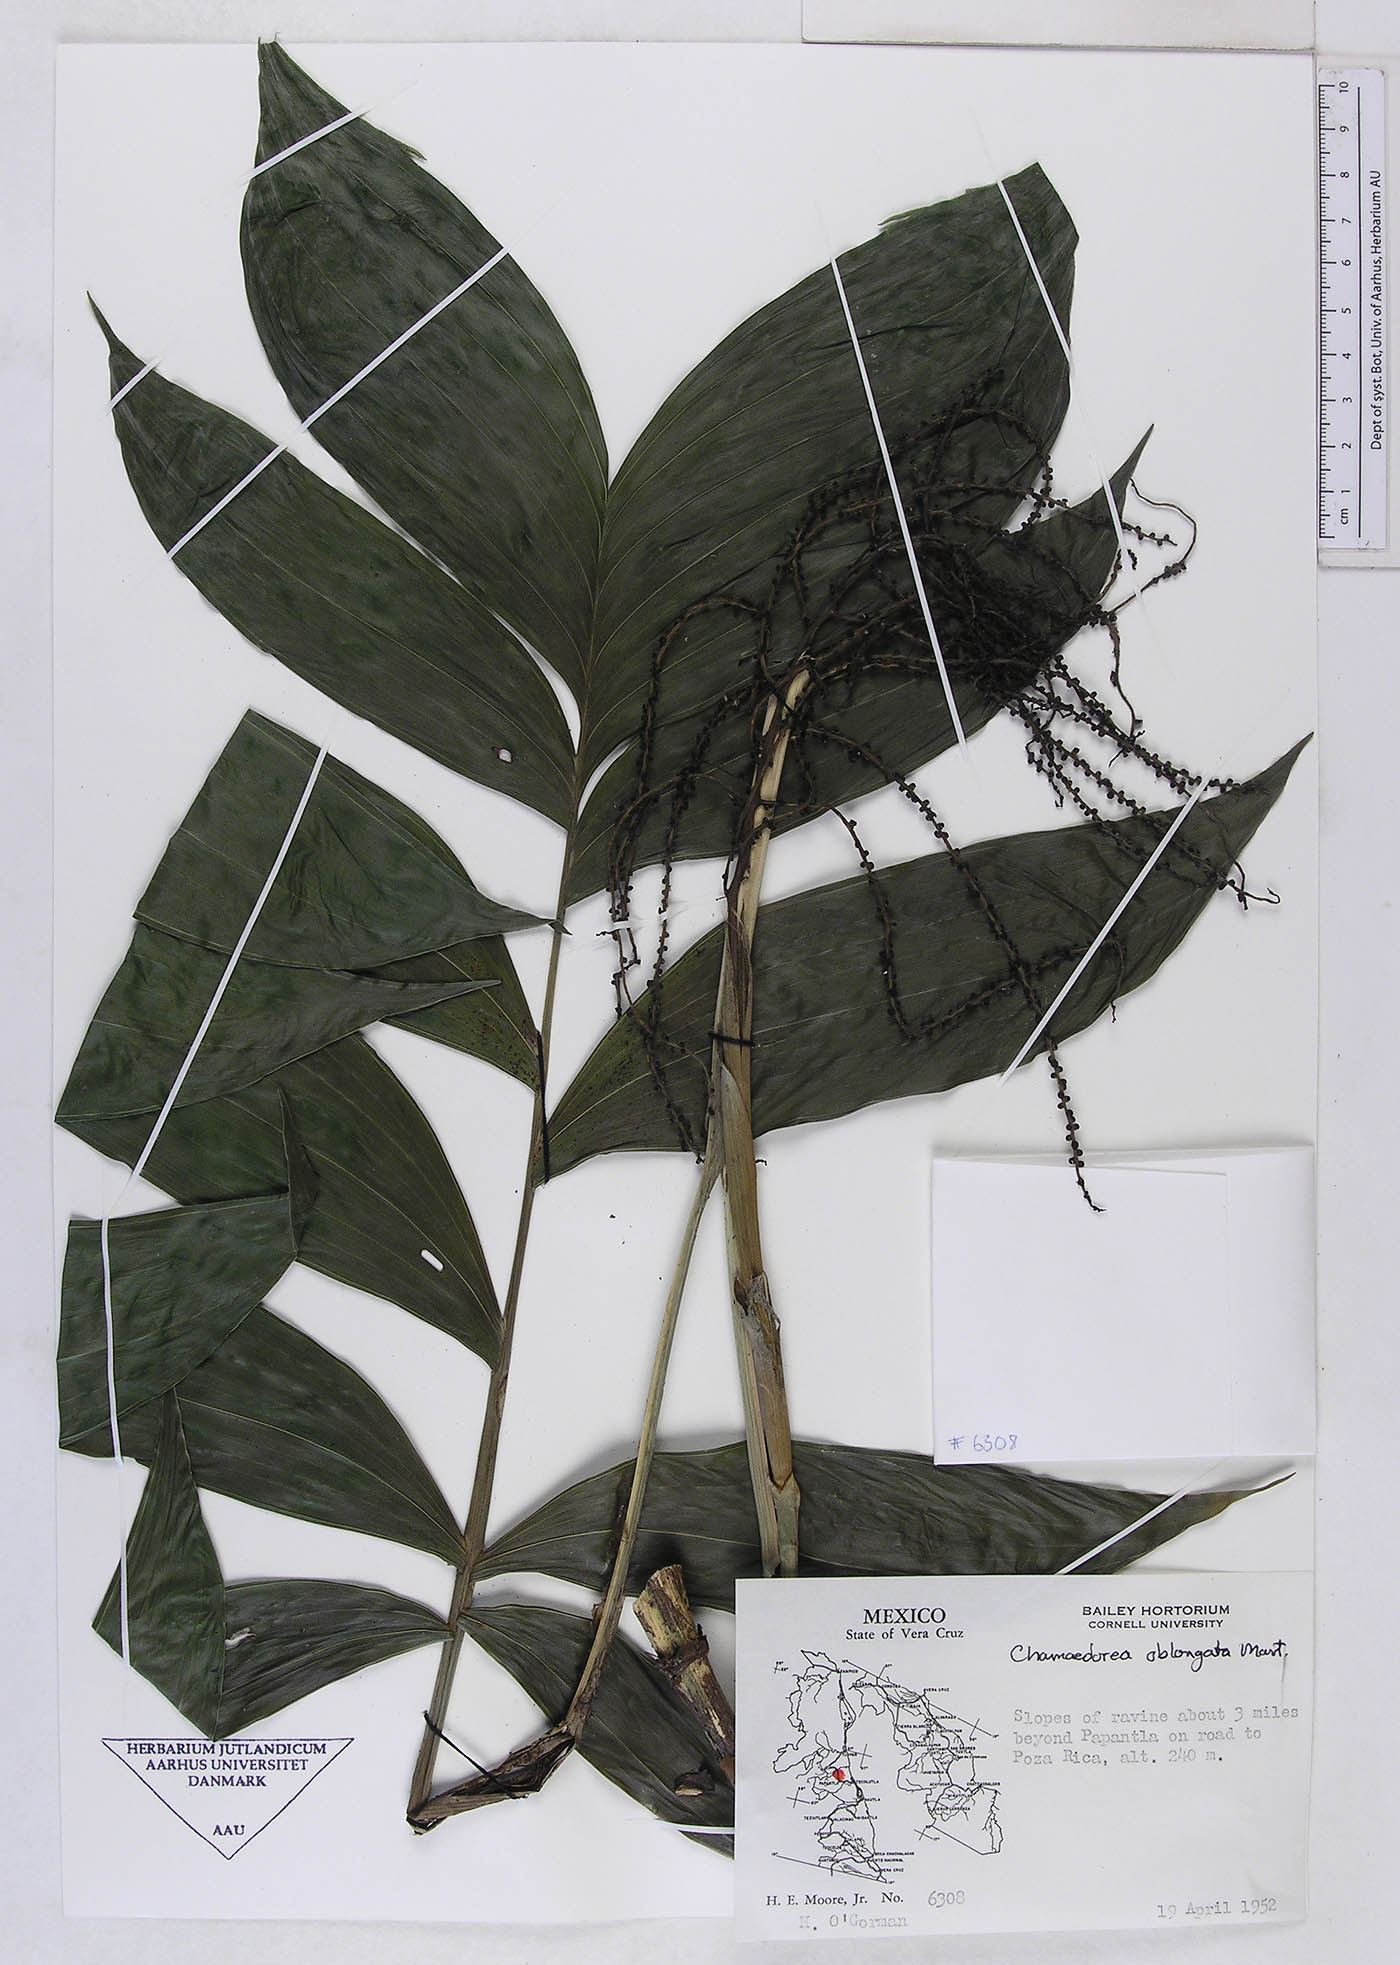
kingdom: Plantae
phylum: Tracheophyta
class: Liliopsida
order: Arecales
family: Arecaceae
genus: Chamaedorea
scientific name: Chamaedorea oblongata
